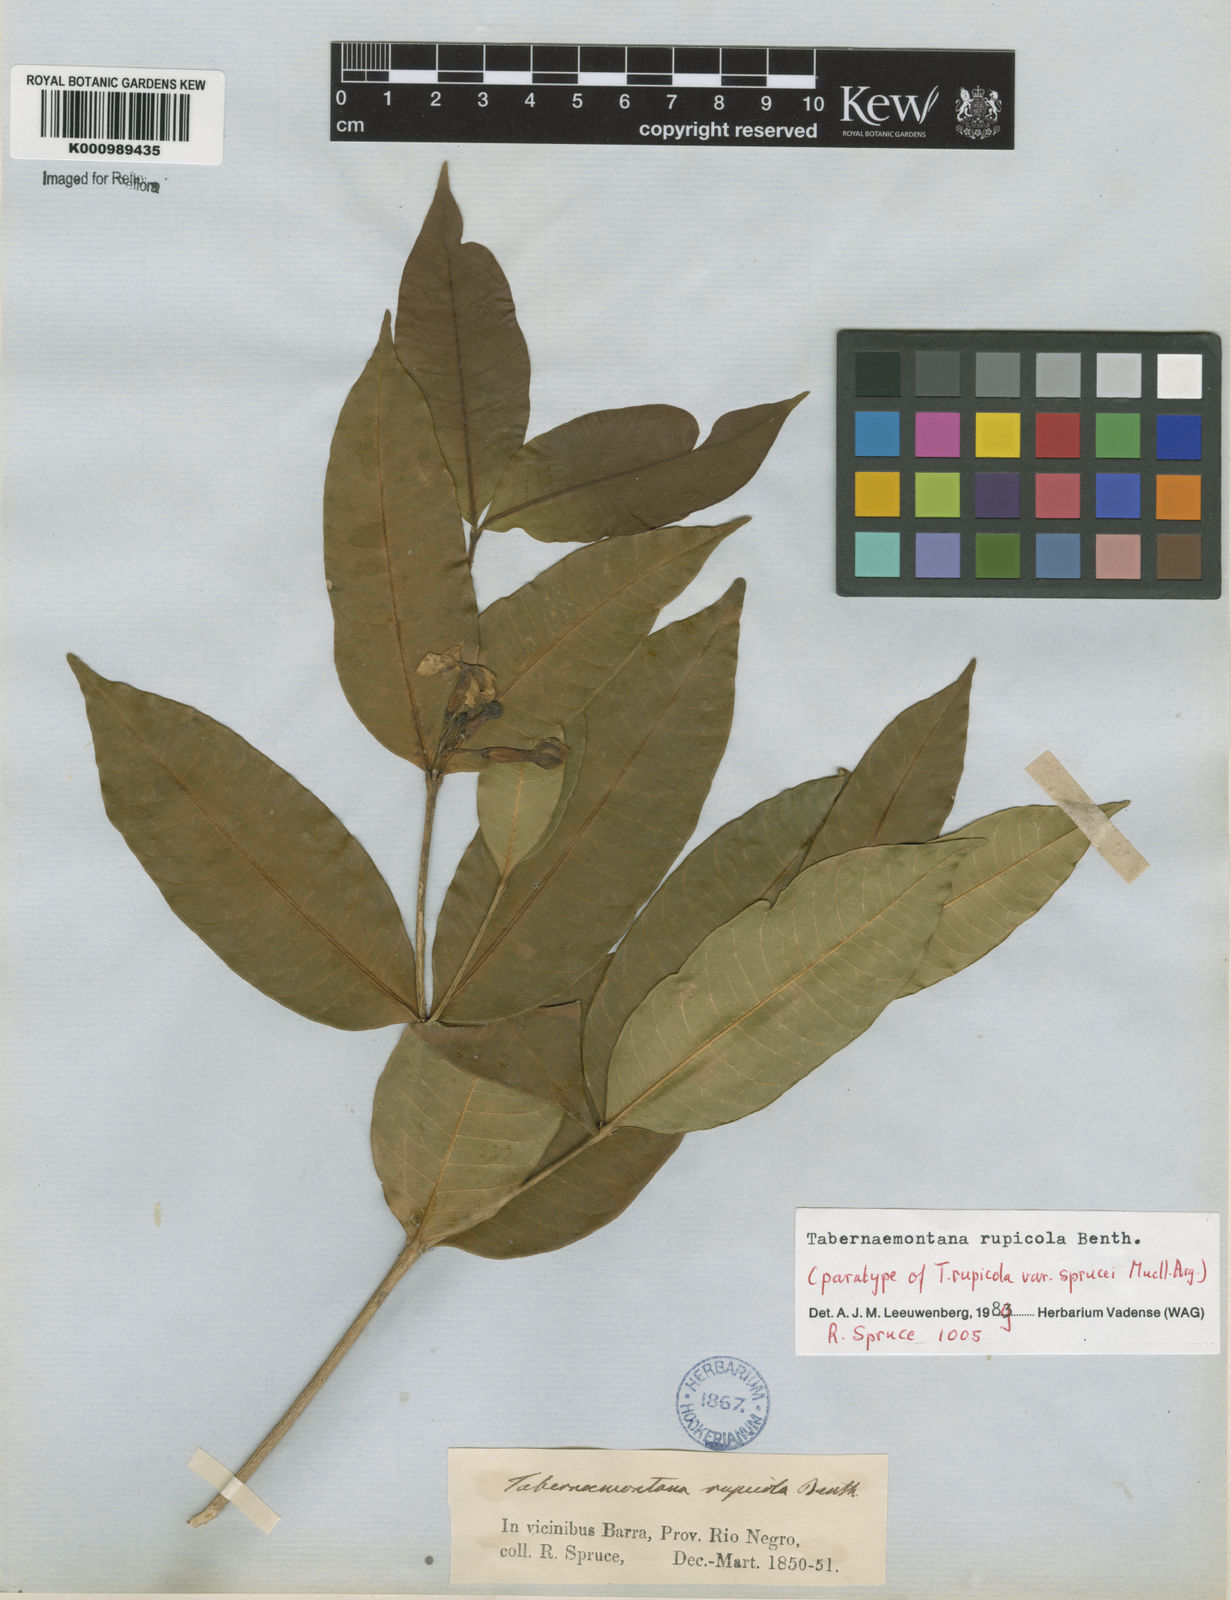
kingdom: Plantae
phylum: Tracheophyta
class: Magnoliopsida
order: Gentianales
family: Apocynaceae
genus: Tabernaemontana
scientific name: Tabernaemontana rupicola
